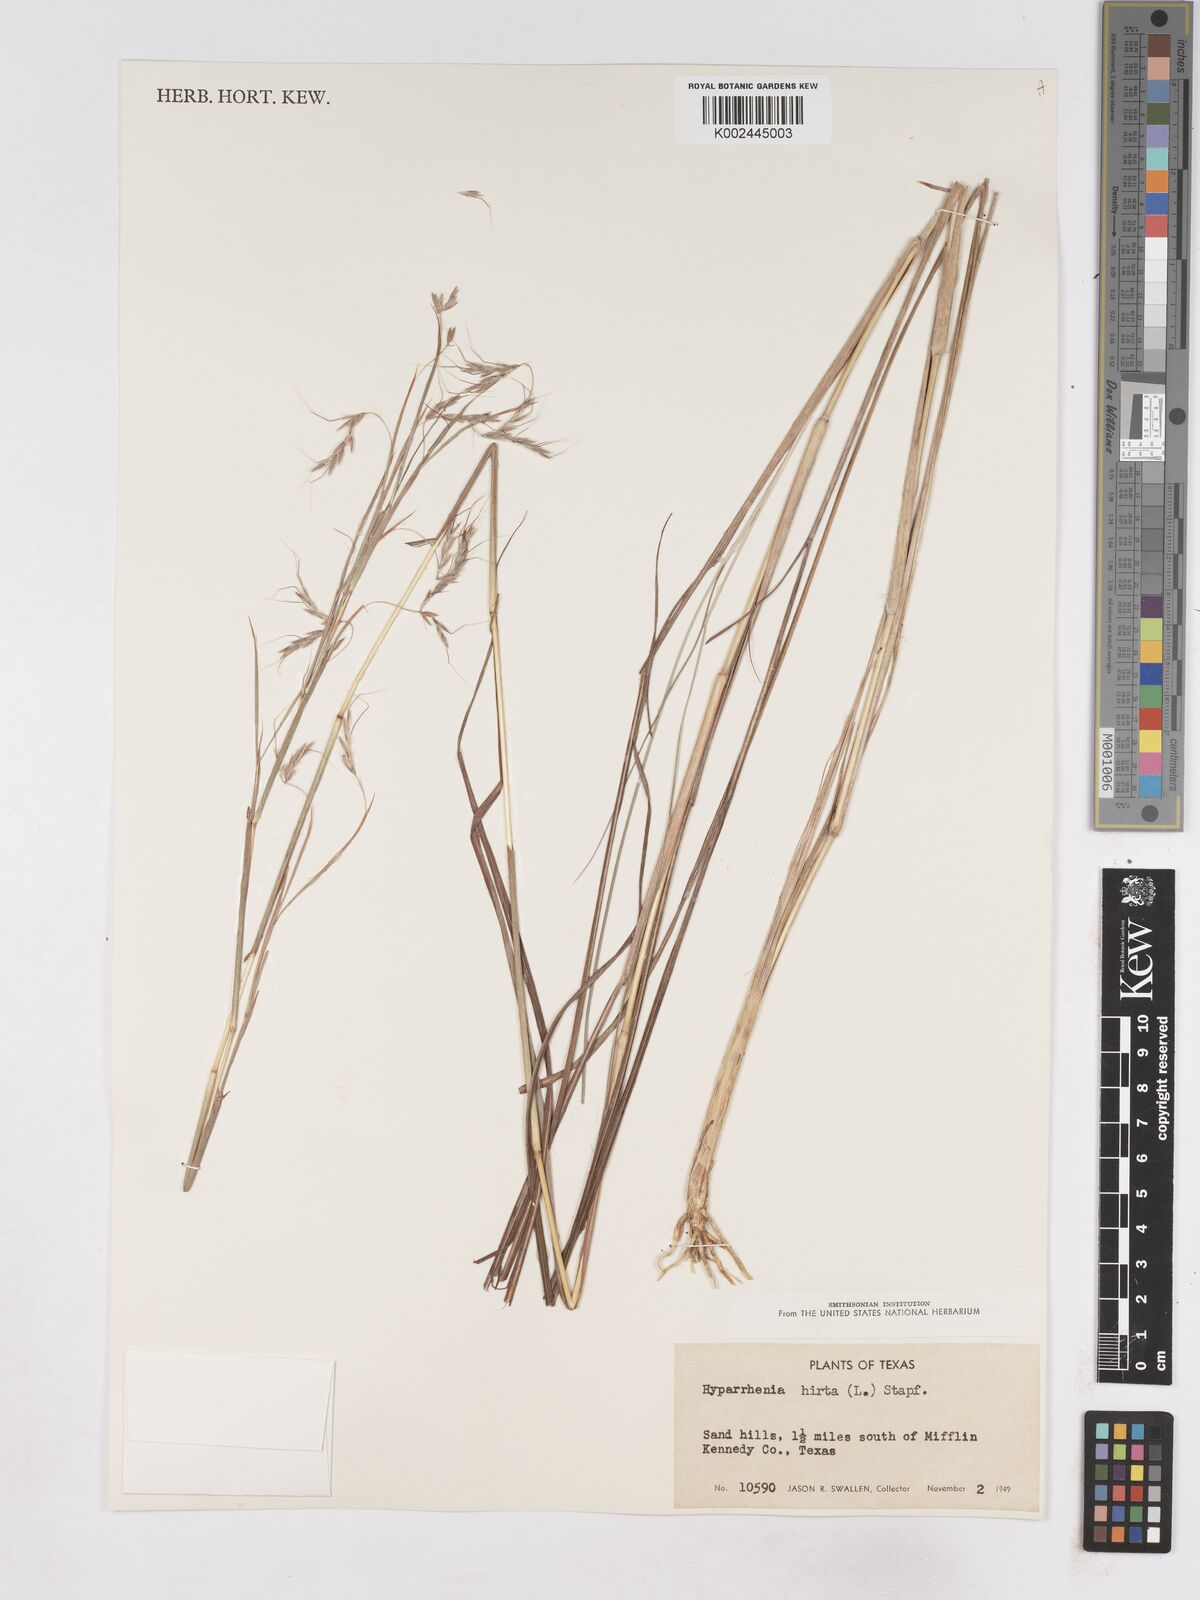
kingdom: Plantae
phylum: Tracheophyta
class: Liliopsida
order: Poales
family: Poaceae
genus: Hyparrhenia
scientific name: Hyparrhenia rufa
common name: Jaraguagrass
